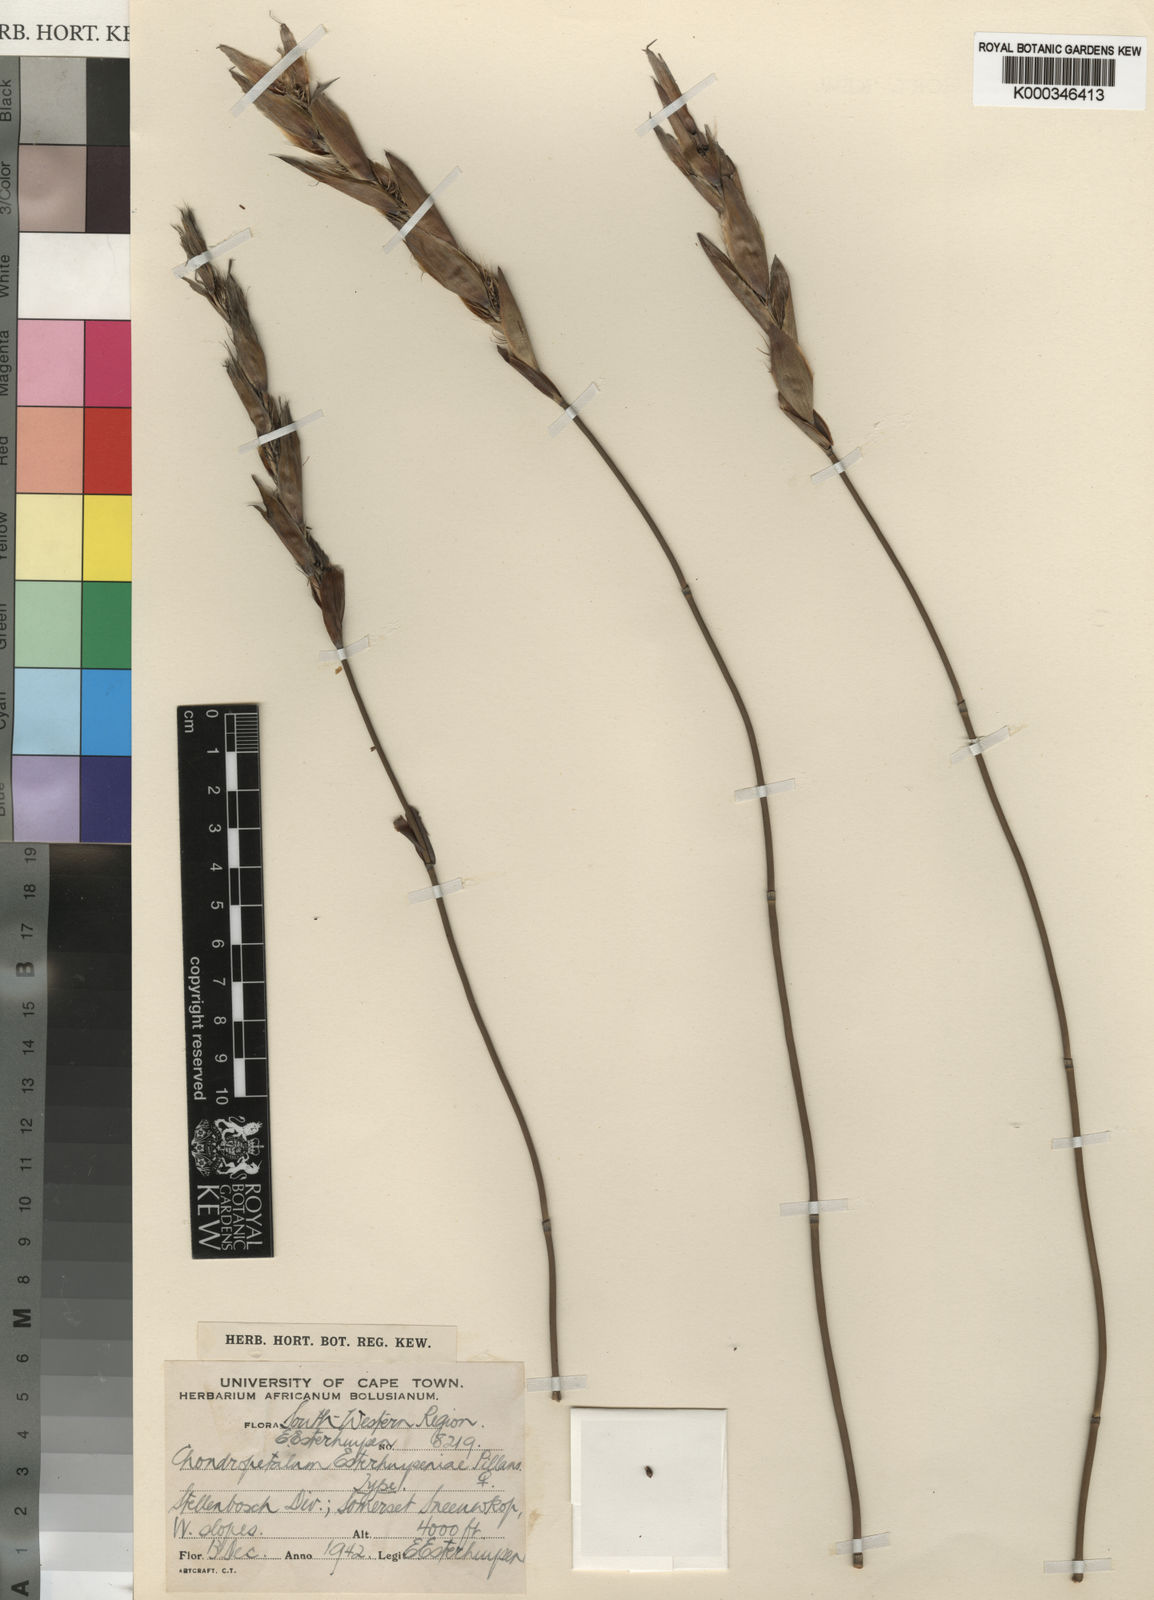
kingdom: Plantae
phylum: Tracheophyta
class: Liliopsida
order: Poales
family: Restionaceae
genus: Askidiosperma
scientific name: Askidiosperma esterhuyseniae
